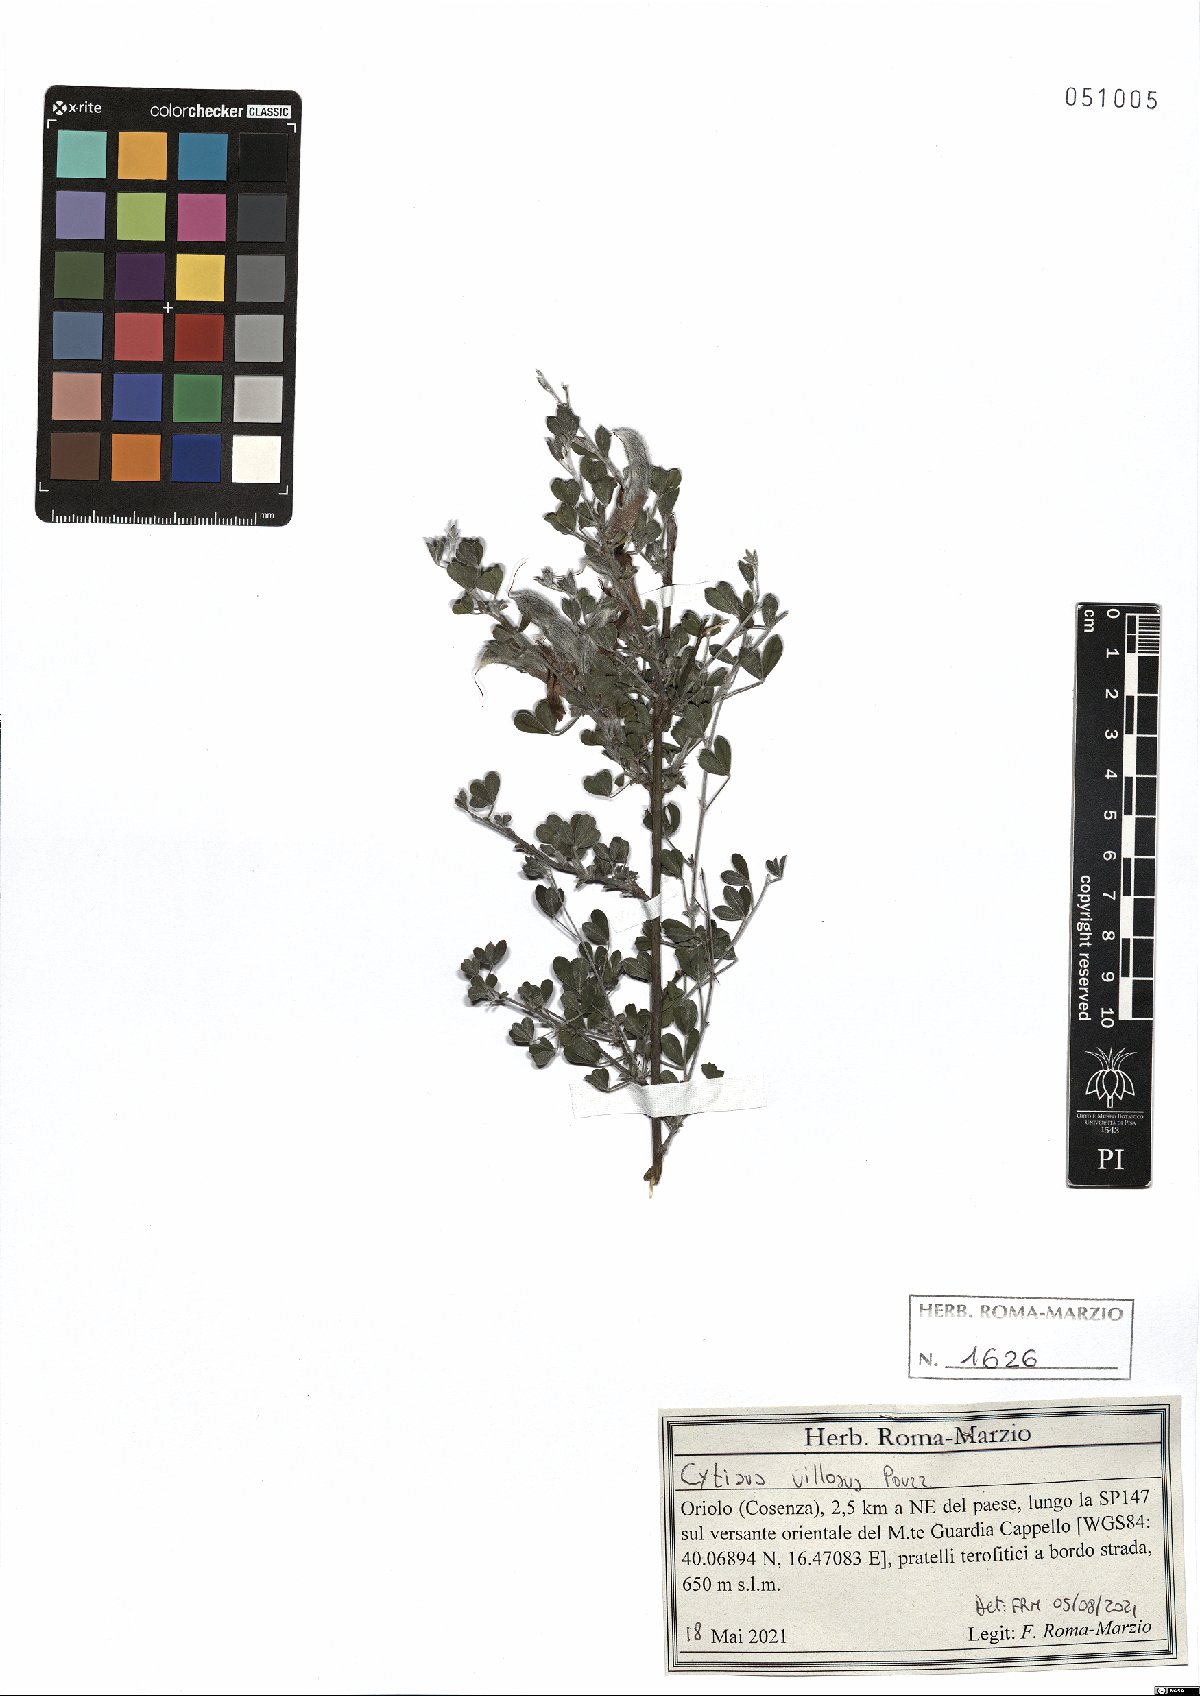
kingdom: Plantae
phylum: Tracheophyta
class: Magnoliopsida
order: Fabales
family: Fabaceae
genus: Cytisus
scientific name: Cytisus villosus
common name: Hairybroom
